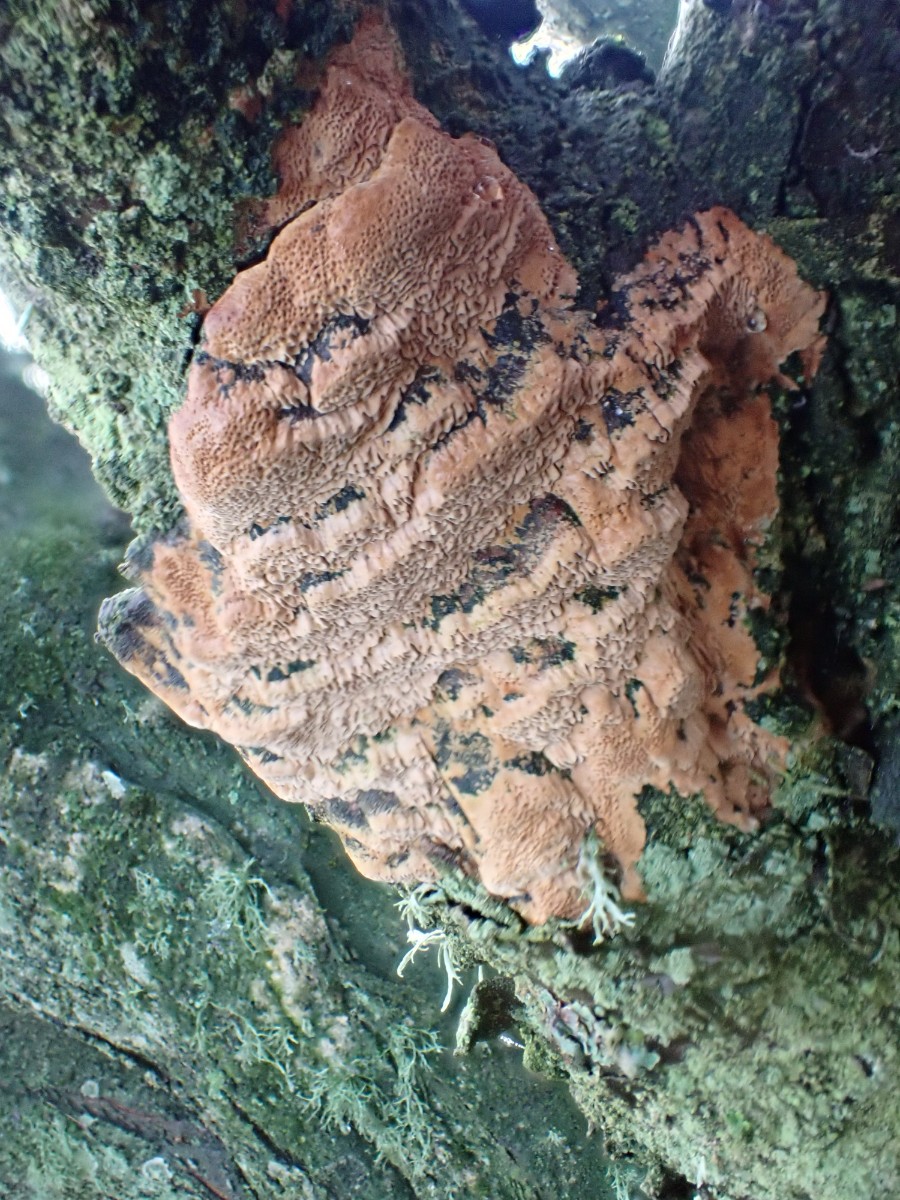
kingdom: Fungi
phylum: Basidiomycota
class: Agaricomycetes
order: Hymenochaetales
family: Hymenochaetaceae
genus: Phellinus
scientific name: Phellinus pomaceus
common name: blomme-ildporesvamp
